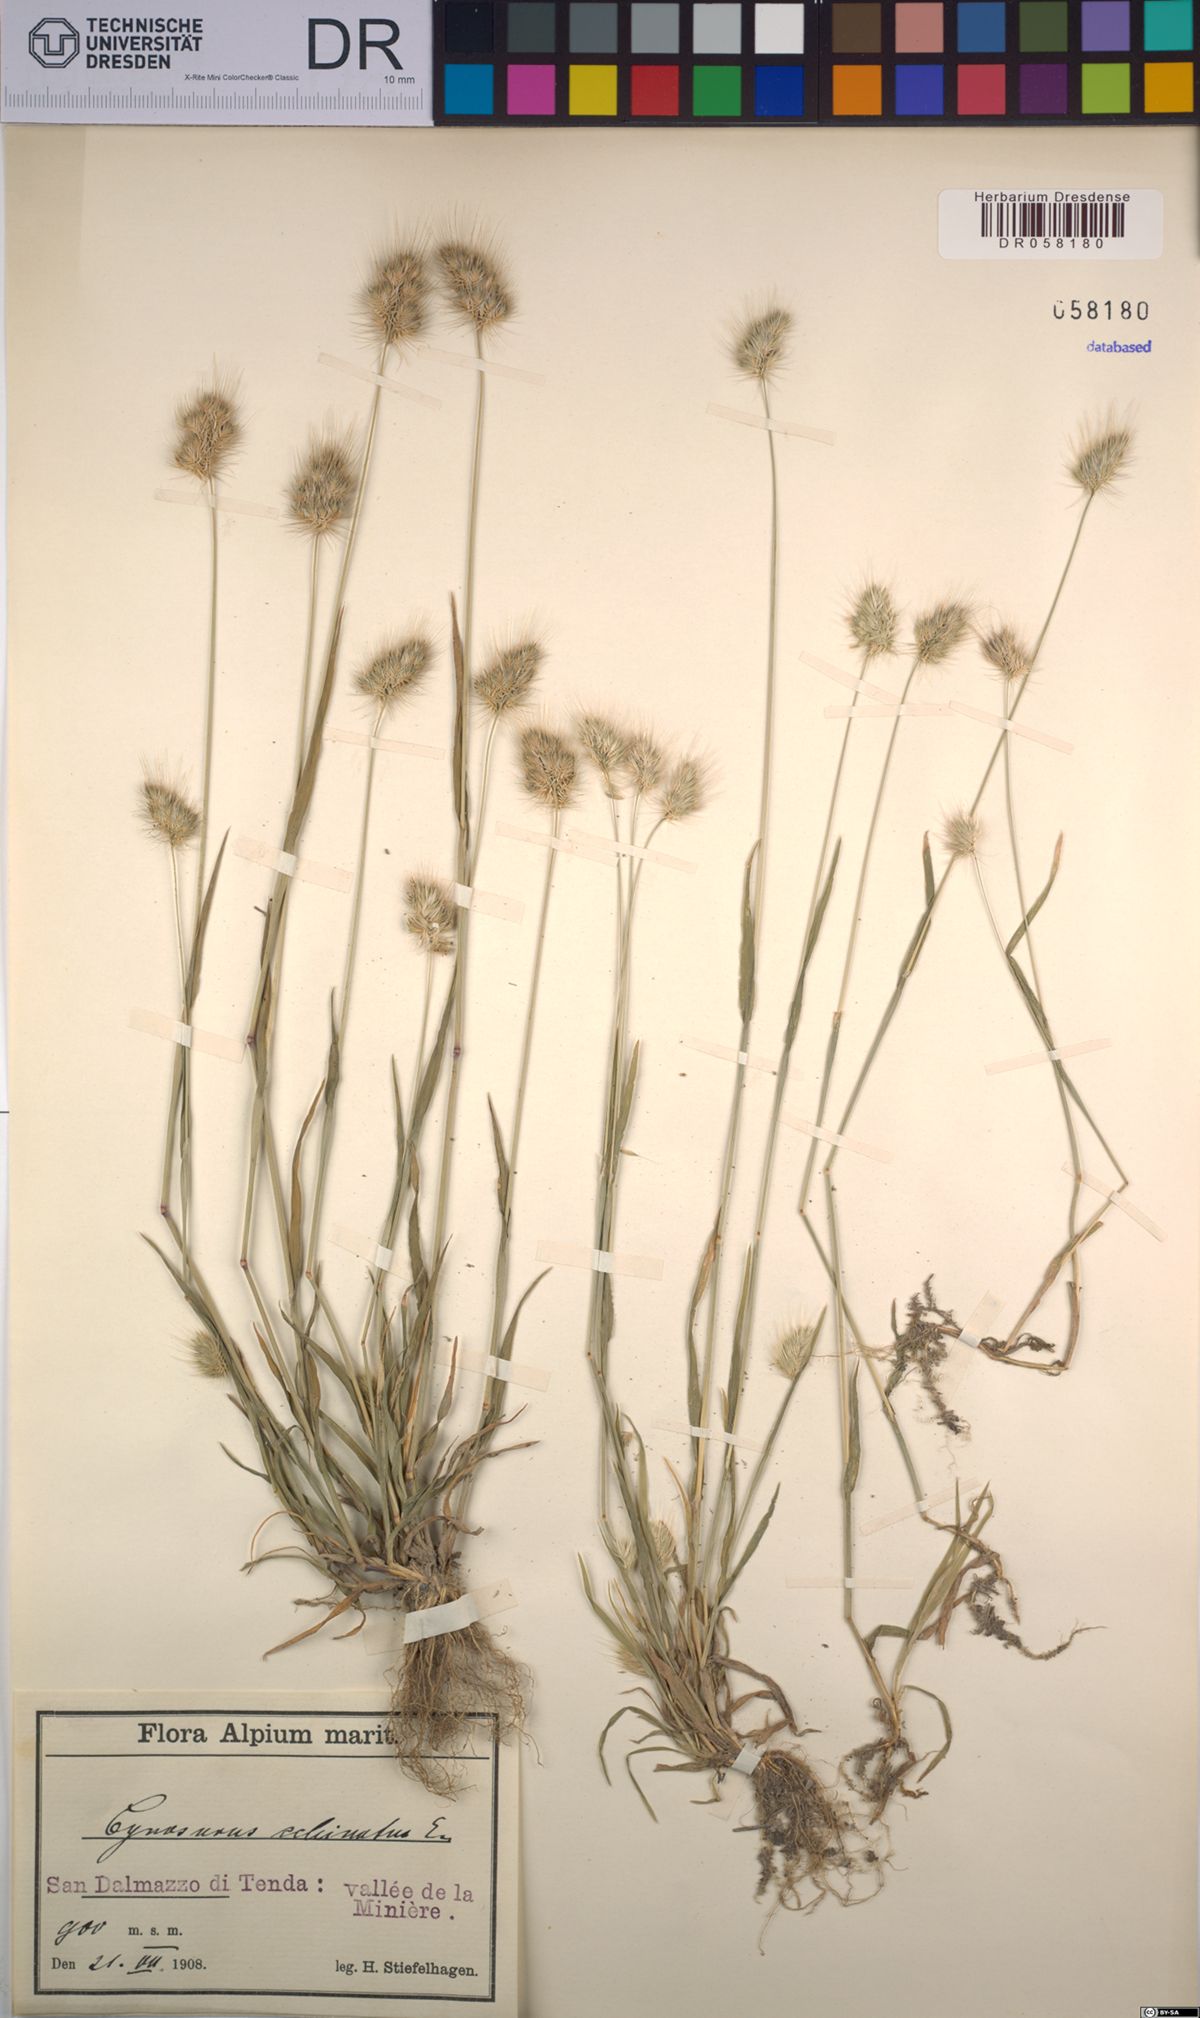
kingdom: Plantae
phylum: Tracheophyta
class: Liliopsida
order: Poales
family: Poaceae
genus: Cynosurus
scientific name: Cynosurus echinatus
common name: Rough dog's-tail
